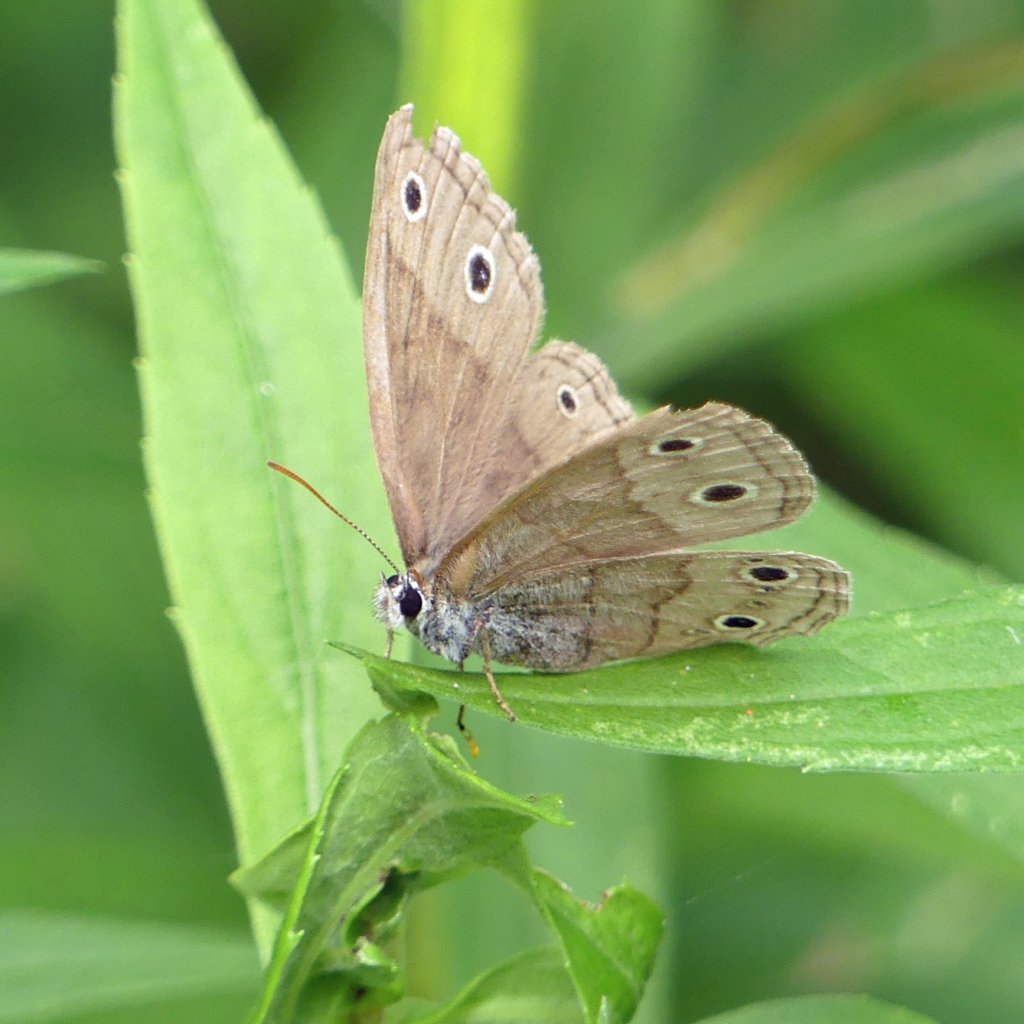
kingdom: Animalia
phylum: Arthropoda
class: Insecta
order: Lepidoptera
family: Nymphalidae
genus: Euptychia
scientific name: Euptychia cymela
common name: Little Wood Satyr
